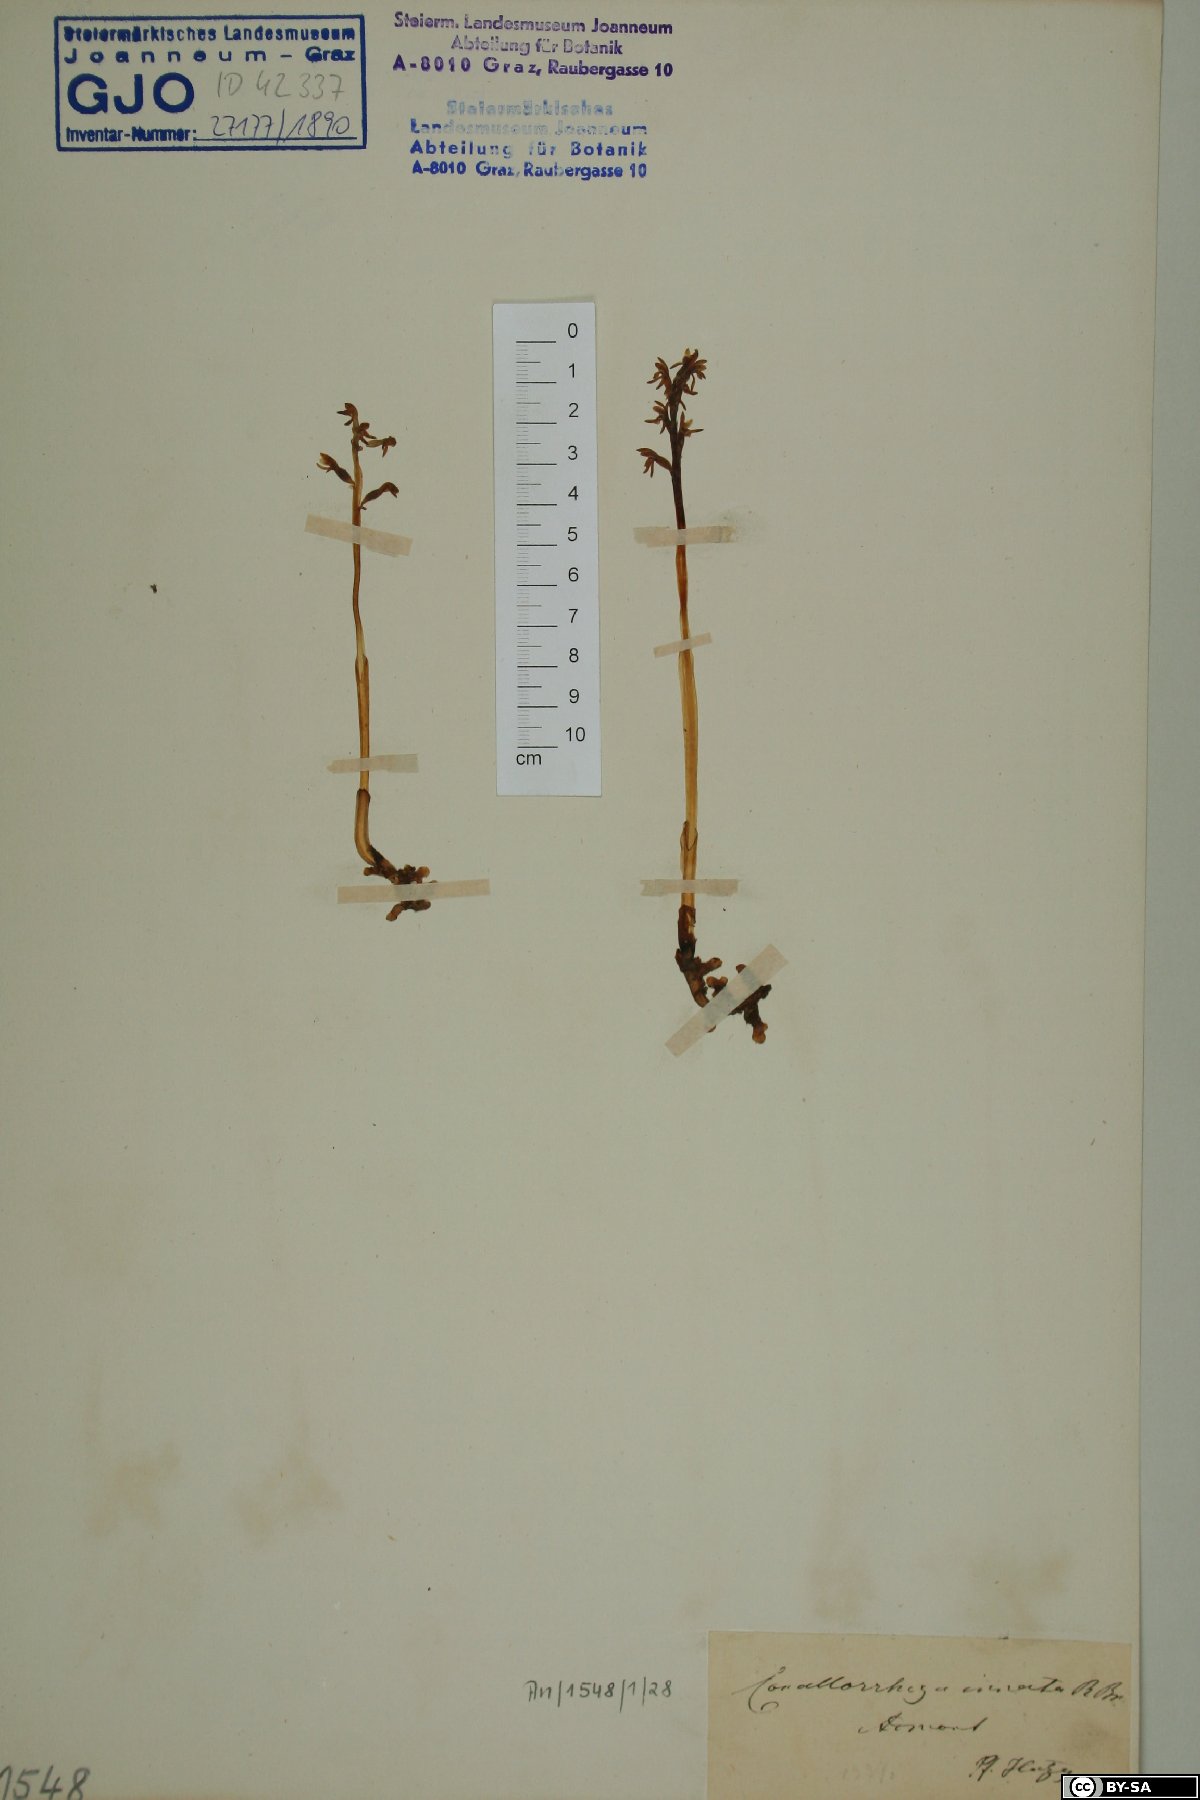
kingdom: Plantae
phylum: Tracheophyta
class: Liliopsida
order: Asparagales
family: Orchidaceae
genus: Corallorhiza
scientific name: Corallorhiza trifida
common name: Yellow coralroot
